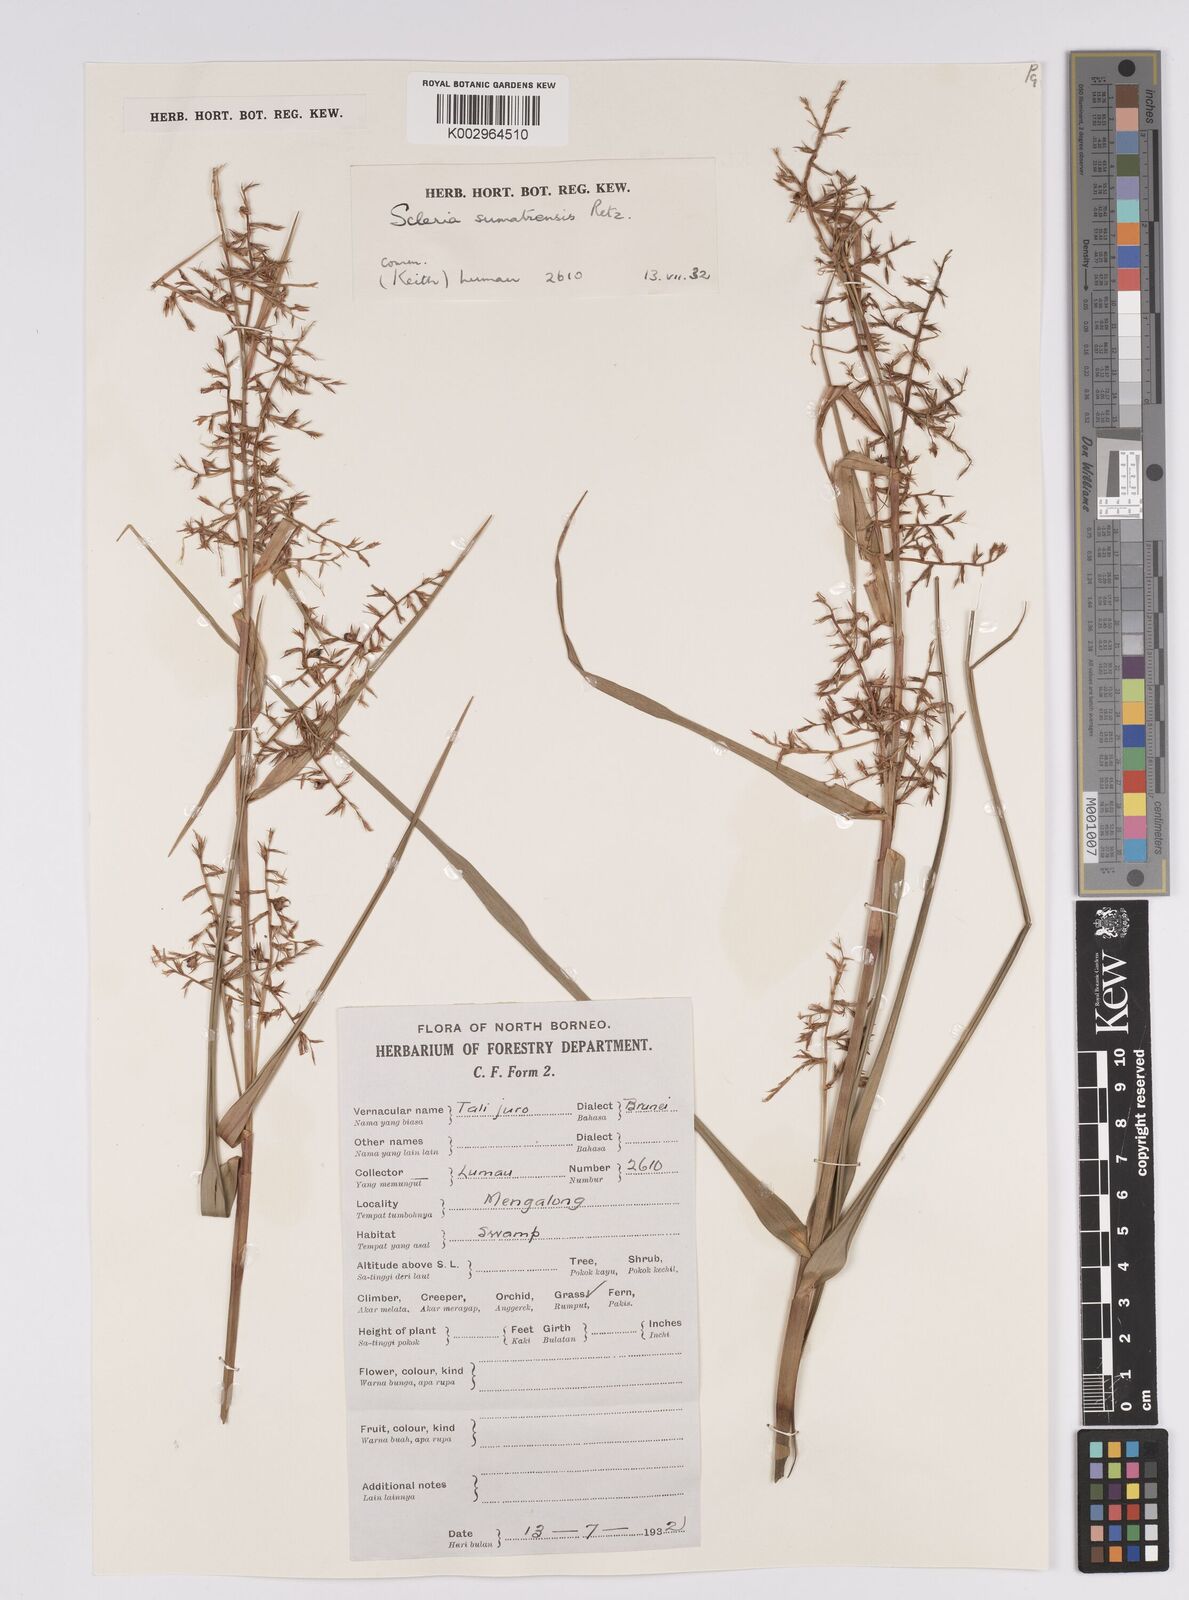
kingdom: Plantae
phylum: Tracheophyta
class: Liliopsida
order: Poales
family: Cyperaceae
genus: Scleria
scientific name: Scleria sumatrensis
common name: Sumatran scleria
